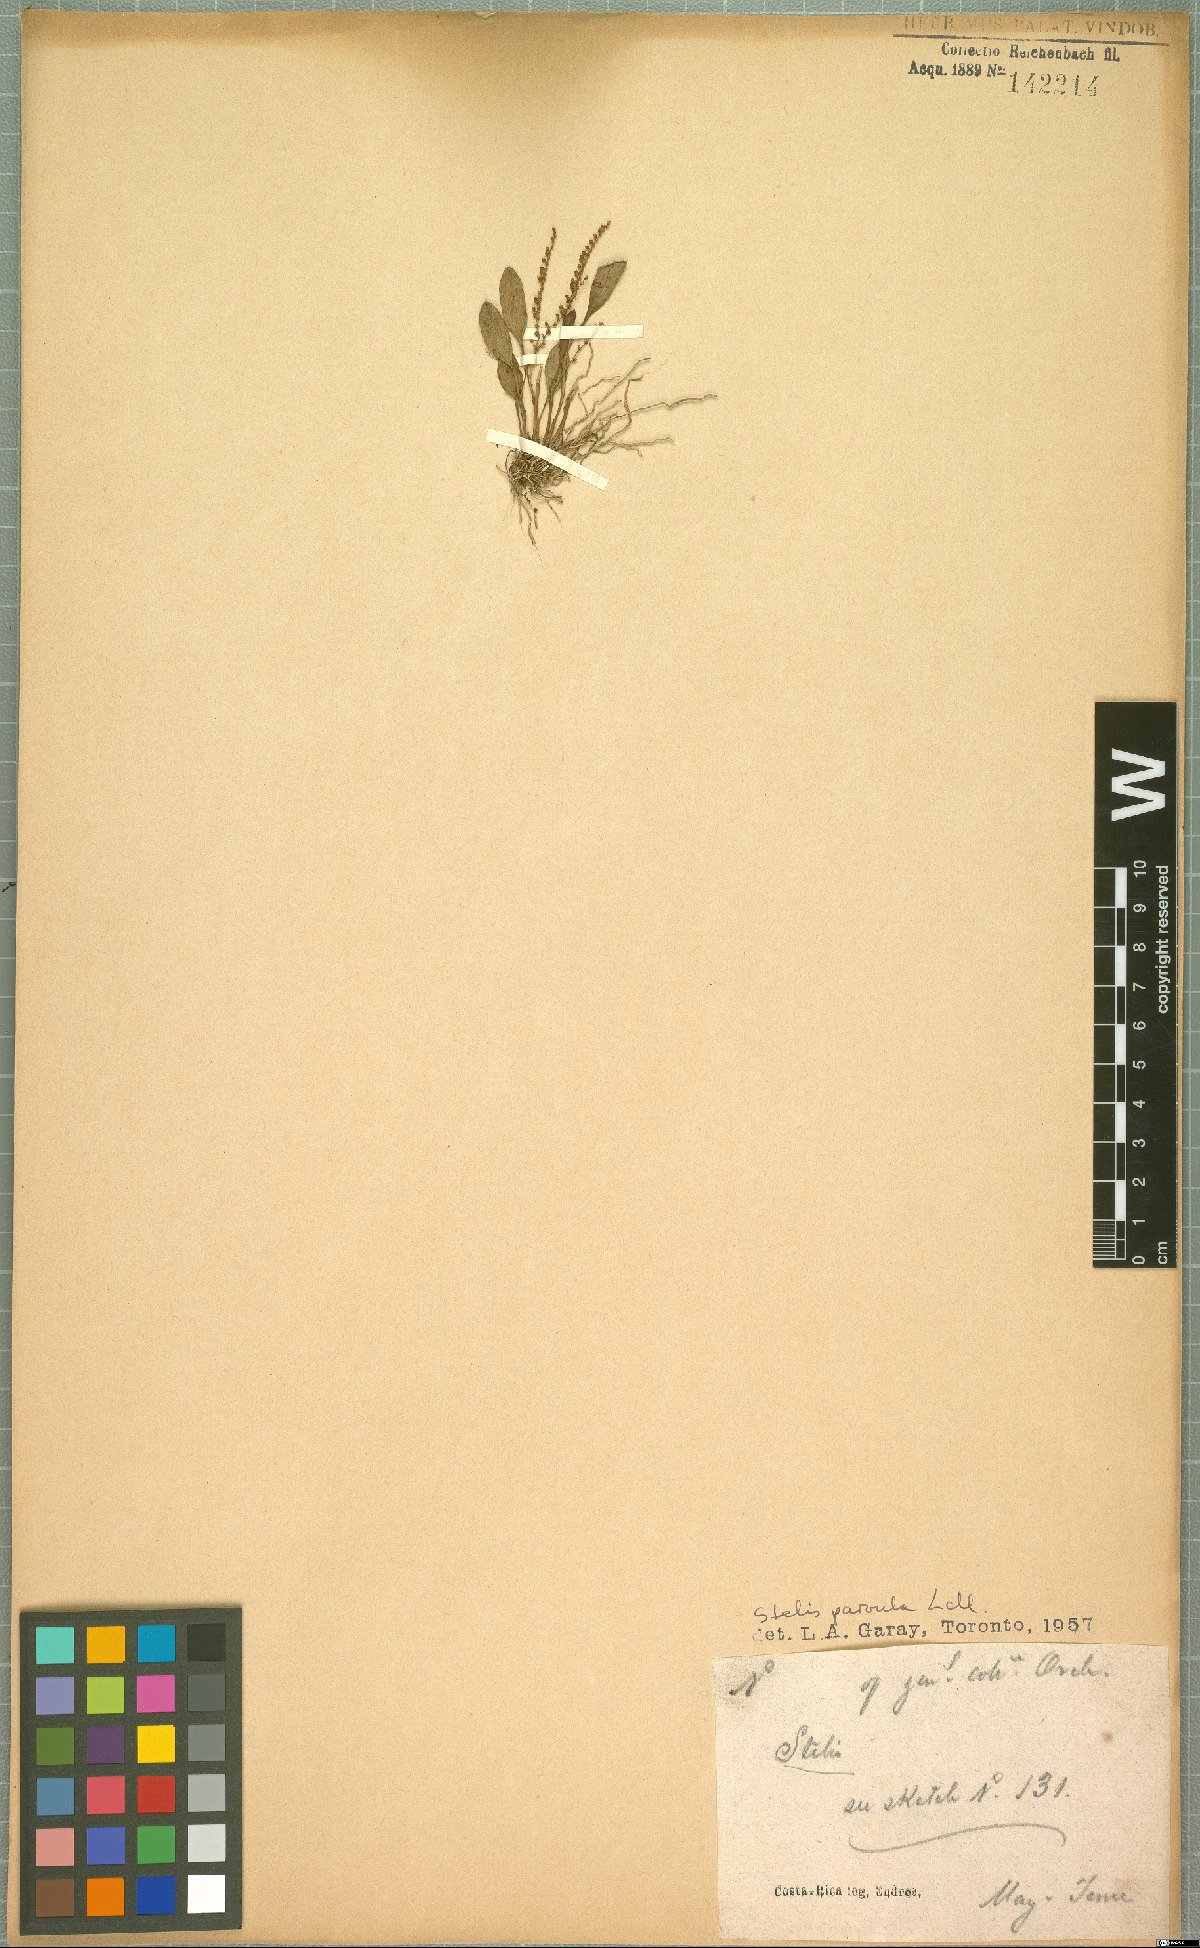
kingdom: Plantae
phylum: Tracheophyta
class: Liliopsida
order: Asparagales
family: Orchidaceae
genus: Stelis
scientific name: Stelis parvula
